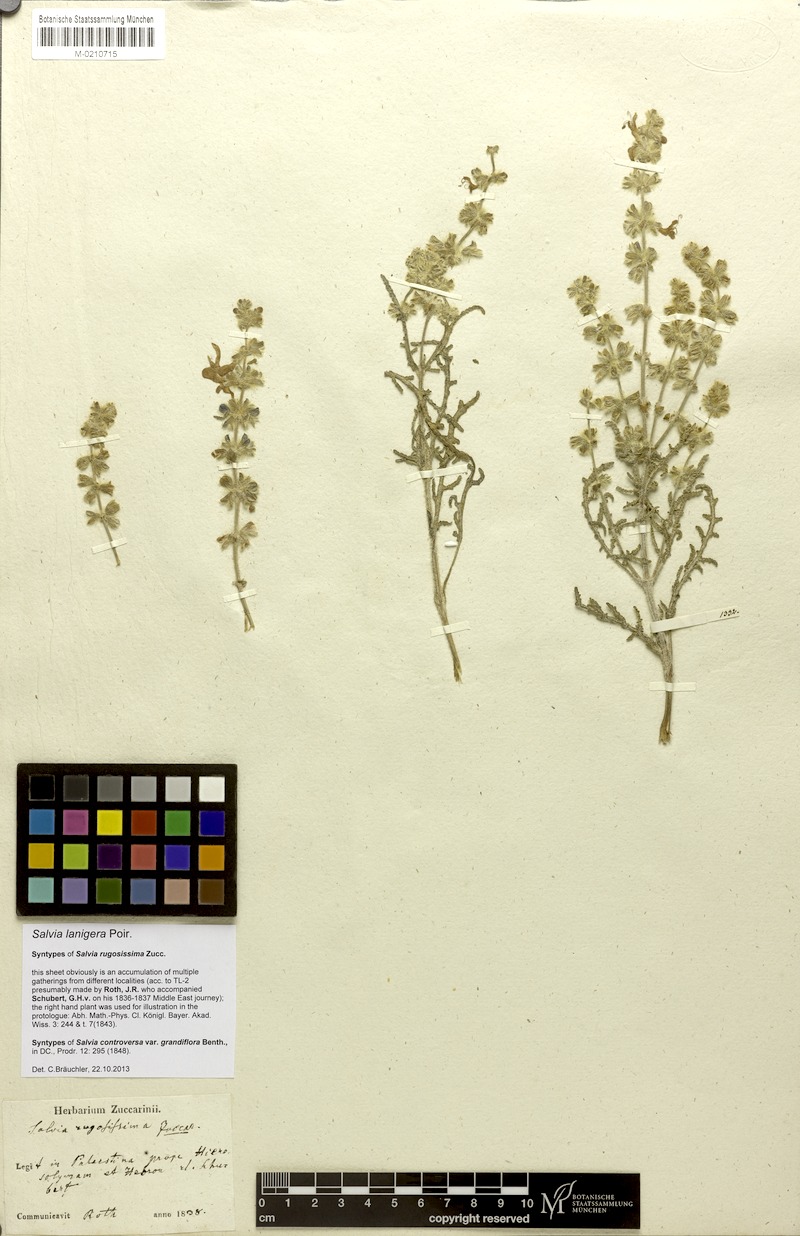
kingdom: Plantae
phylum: Tracheophyta
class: Magnoliopsida
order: Lamiales
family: Lamiaceae
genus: Salvia
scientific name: Salvia lanigera
